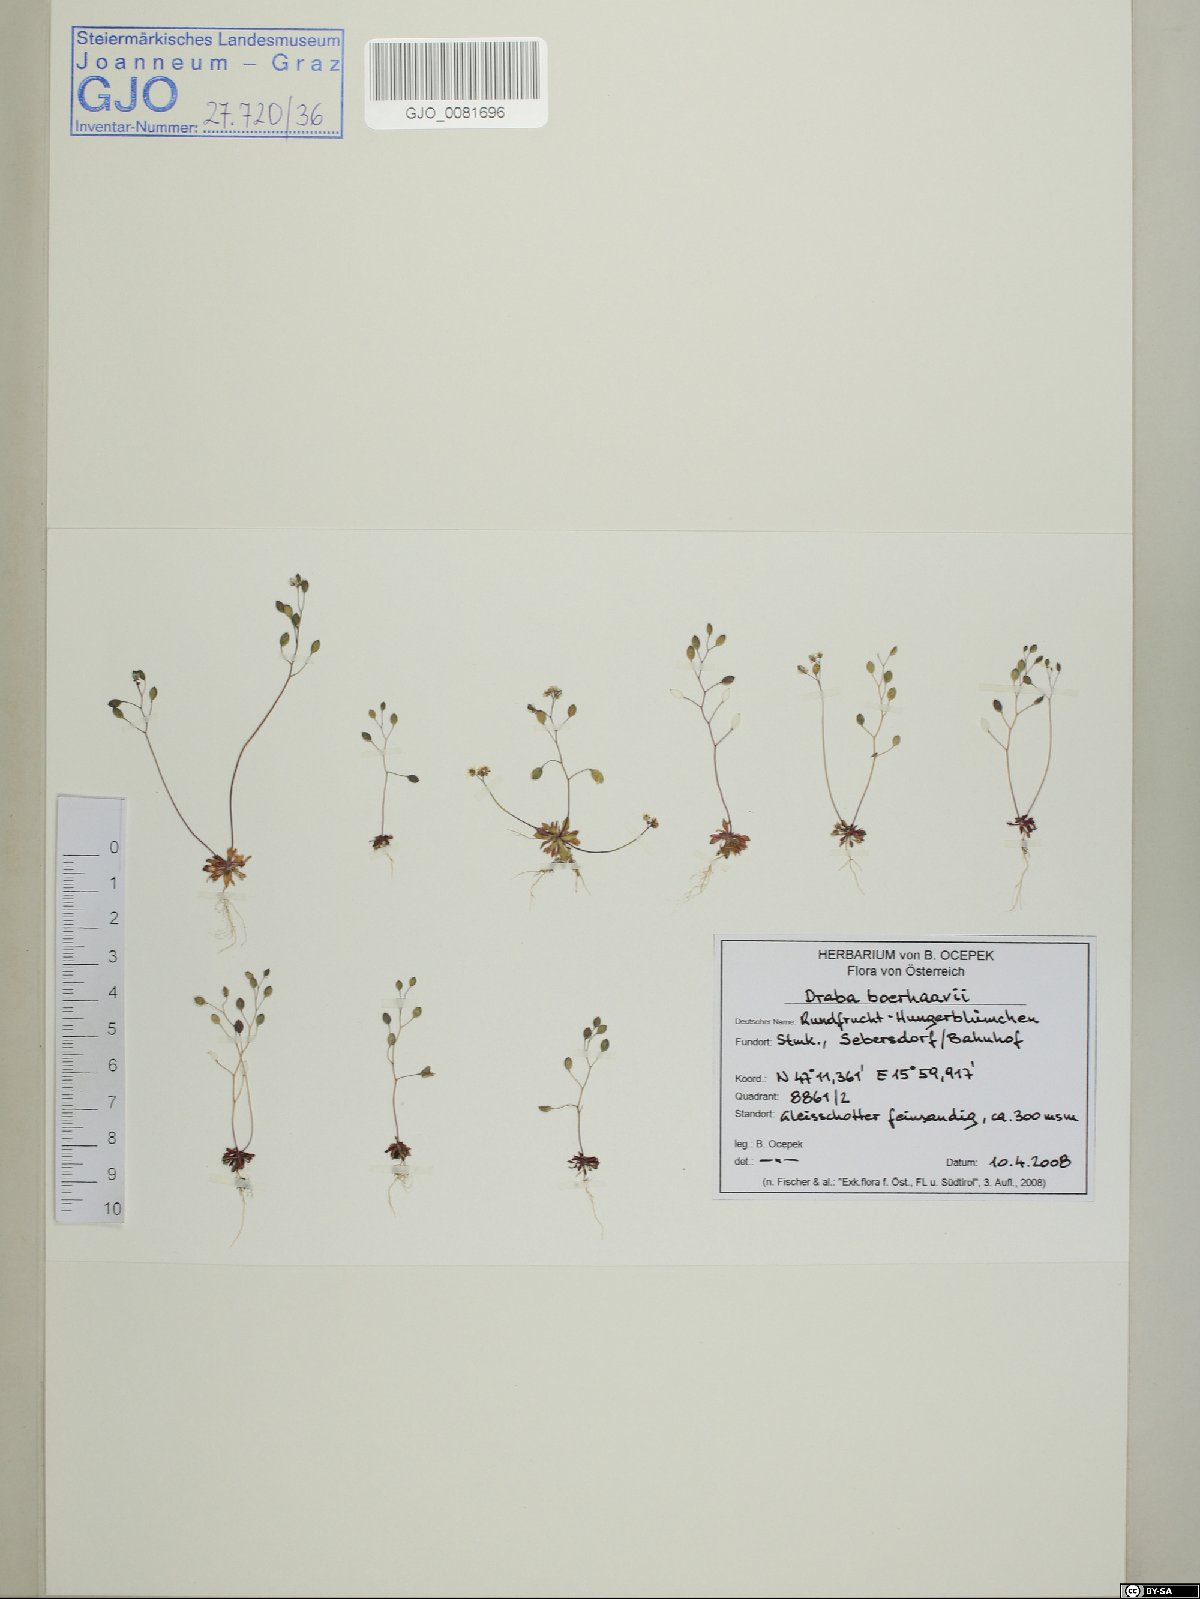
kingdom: Plantae
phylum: Tracheophyta
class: Magnoliopsida
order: Brassicales
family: Brassicaceae
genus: Draba
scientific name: Draba verna
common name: Spring draba
